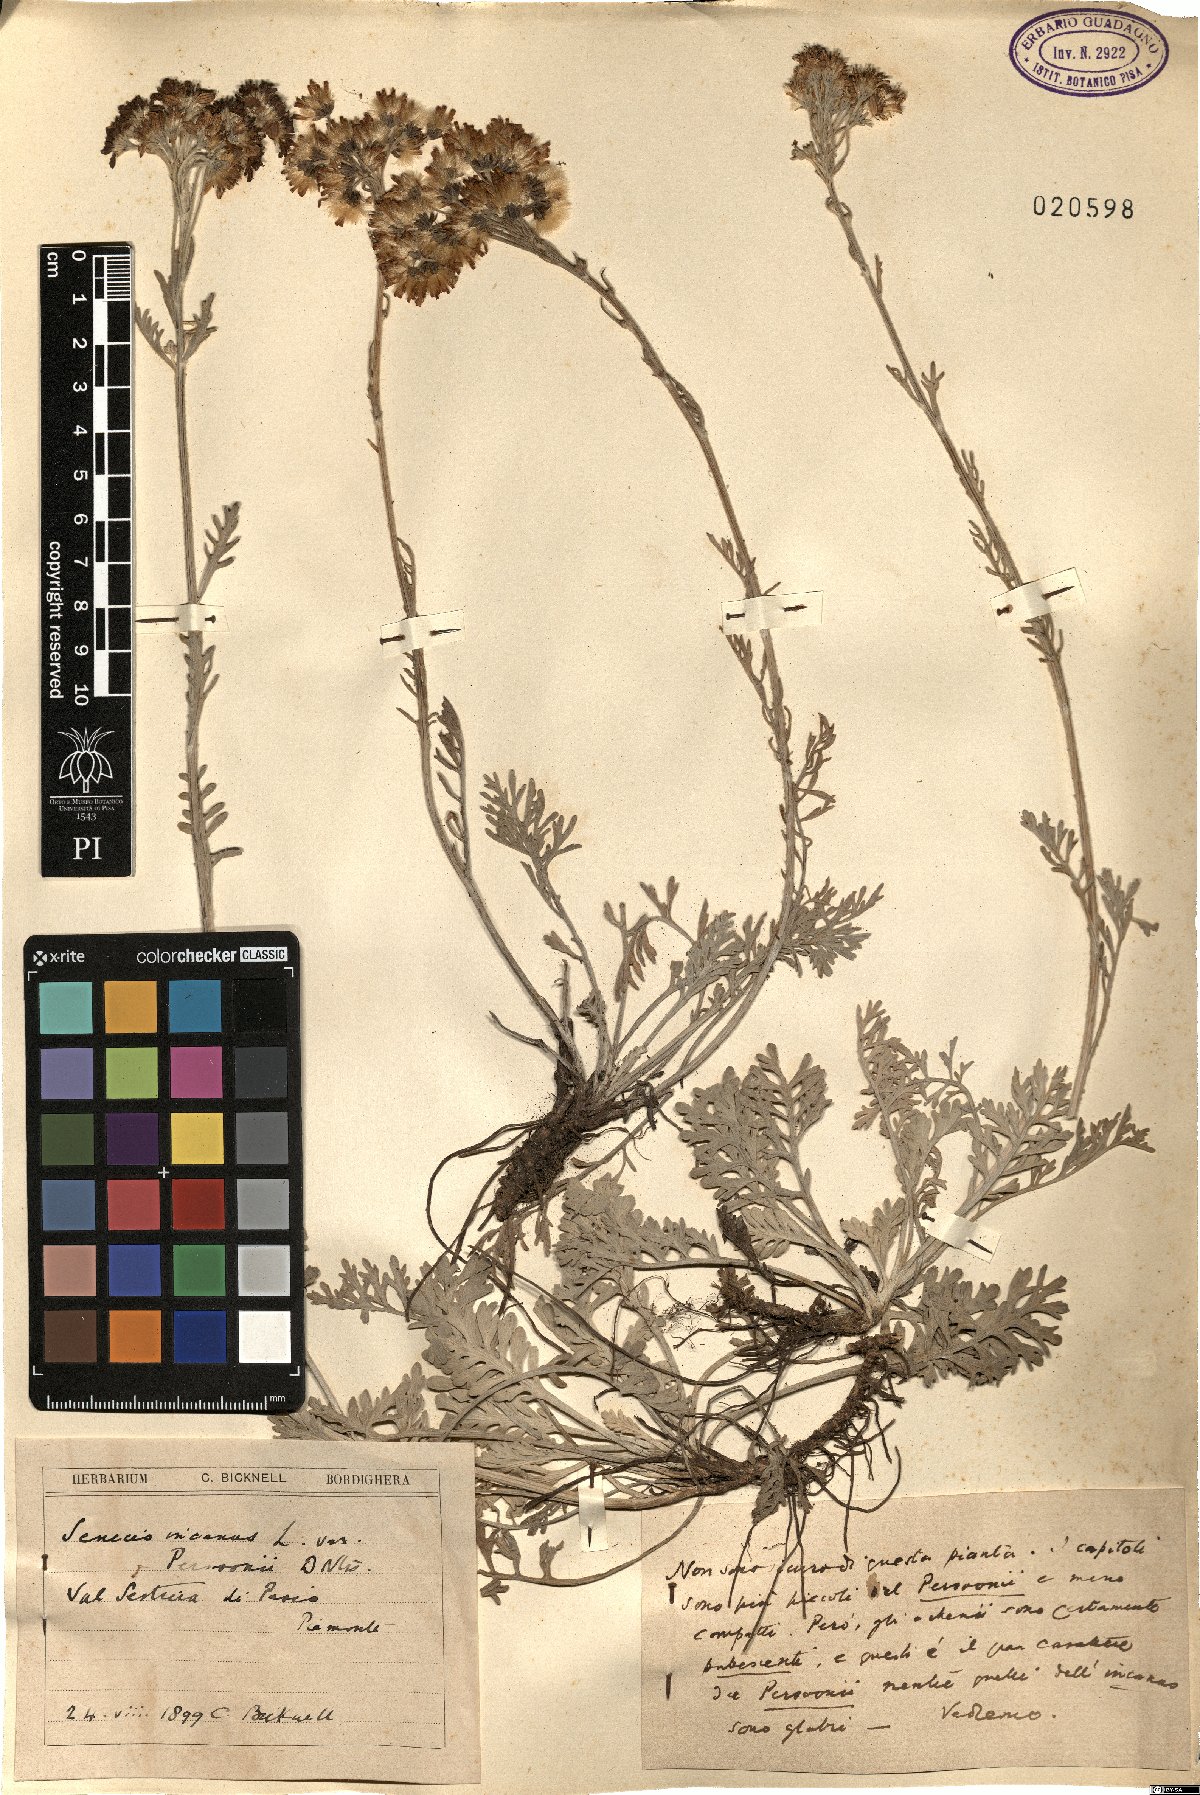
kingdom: Plantae
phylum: Tracheophyta
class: Magnoliopsida
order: Asterales
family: Asteraceae
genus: Jacobaea
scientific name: Jacobaea incana
